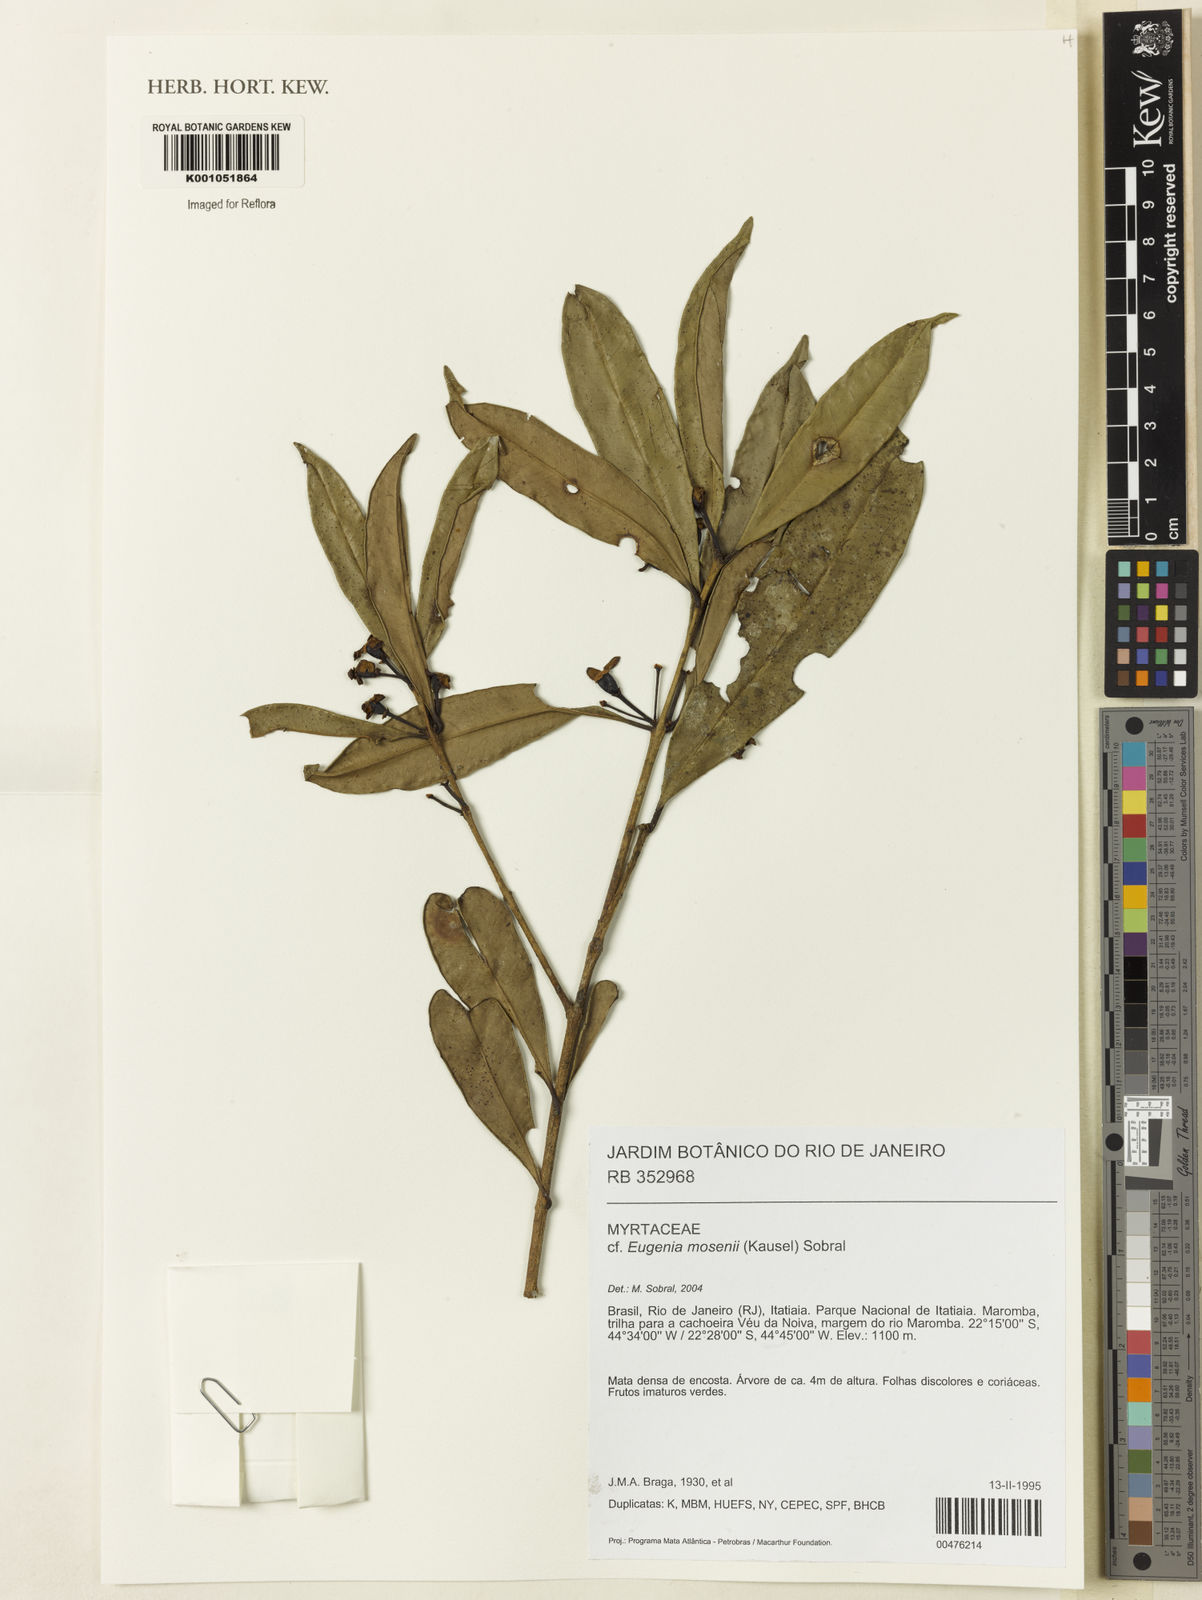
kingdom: Plantae
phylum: Tracheophyta
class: Magnoliopsida
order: Myrtales
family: Myrtaceae
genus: Eugenia
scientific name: Eugenia mosenii
